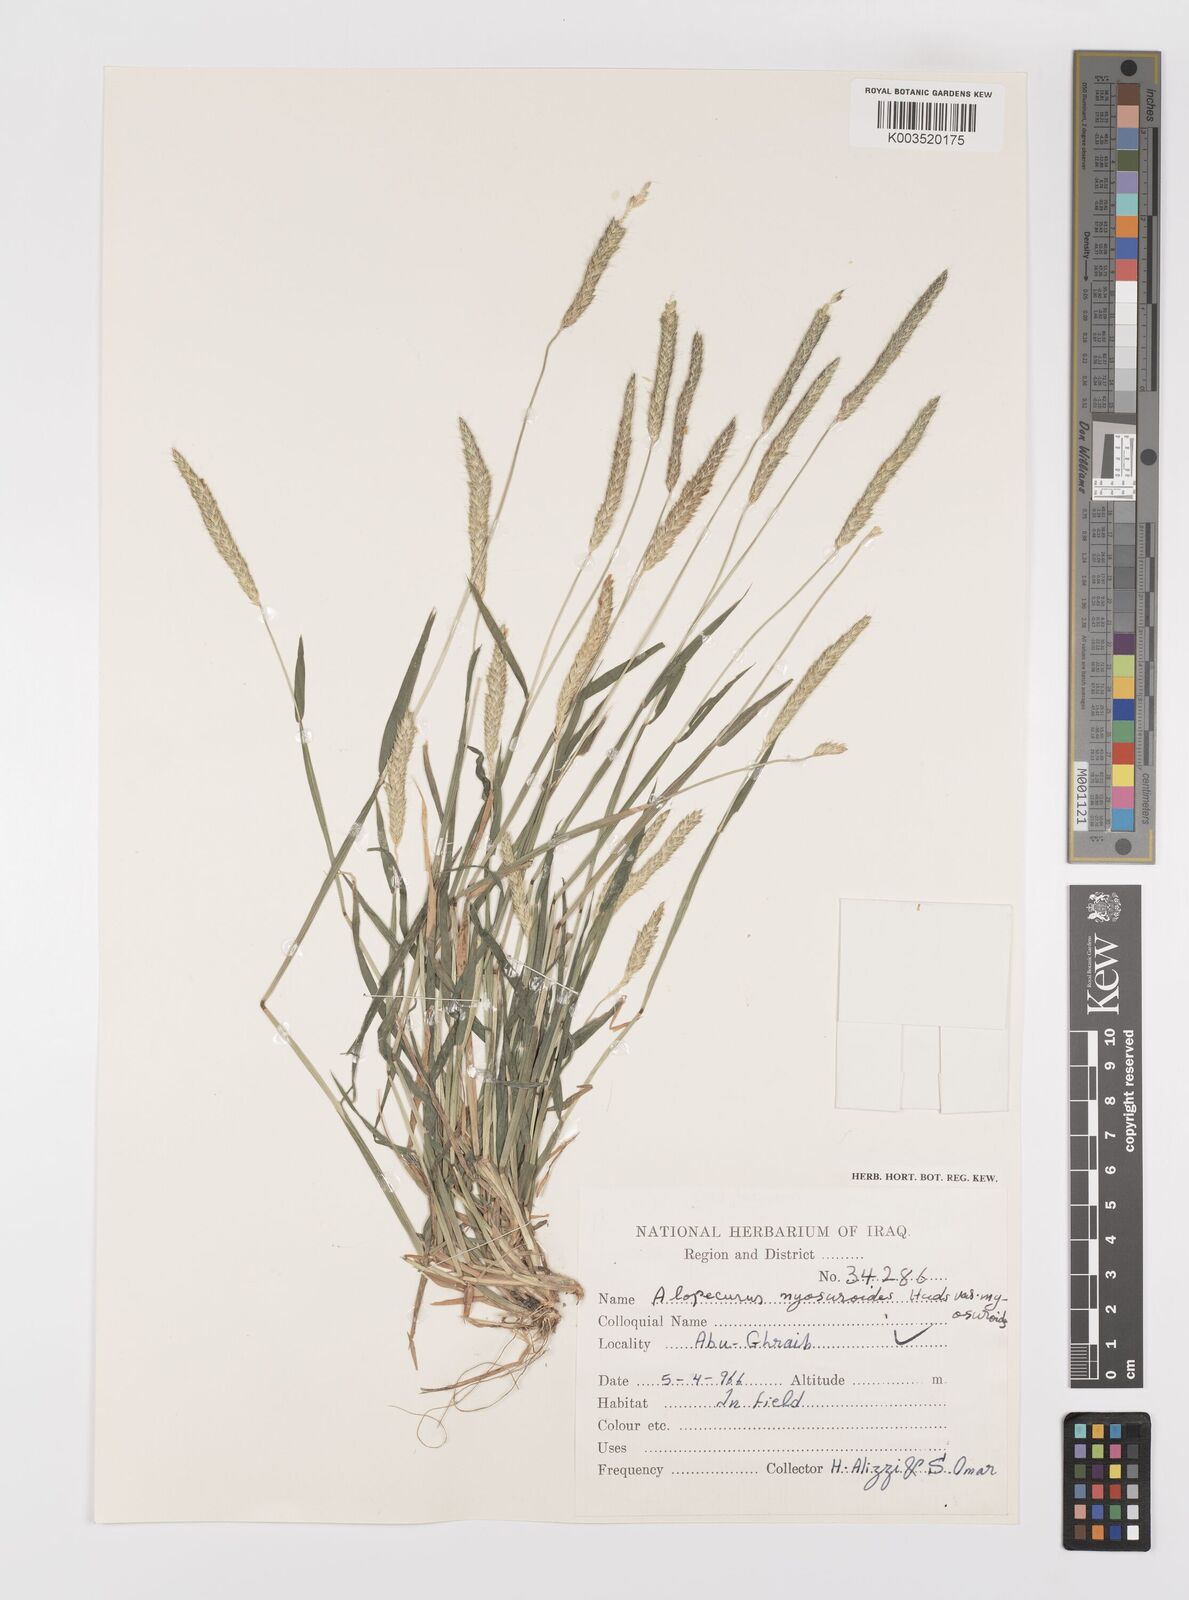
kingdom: Plantae
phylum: Tracheophyta
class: Liliopsida
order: Poales
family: Poaceae
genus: Alopecurus
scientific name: Alopecurus myosuroides
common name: Black-grass
